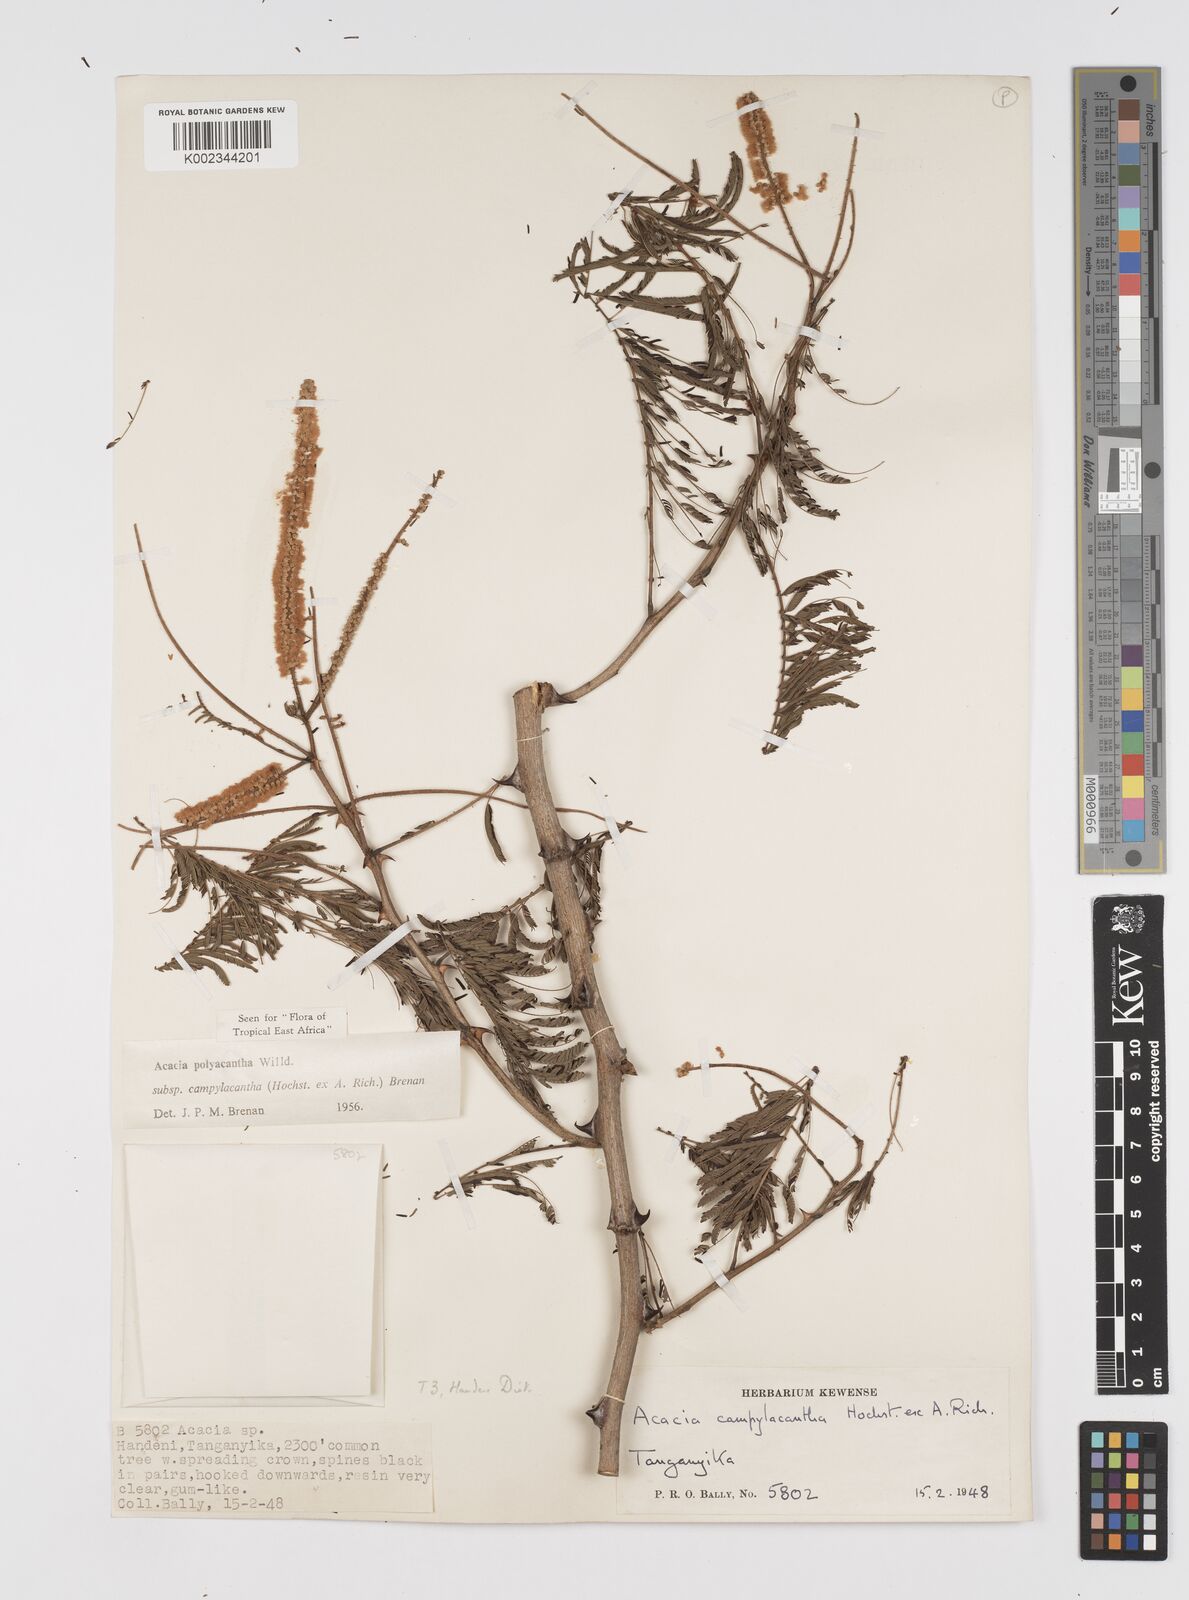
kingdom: Plantae
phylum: Tracheophyta
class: Magnoliopsida
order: Fabales
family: Fabaceae
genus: Senegalia
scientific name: Senegalia polyacantha
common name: Whitethorn
